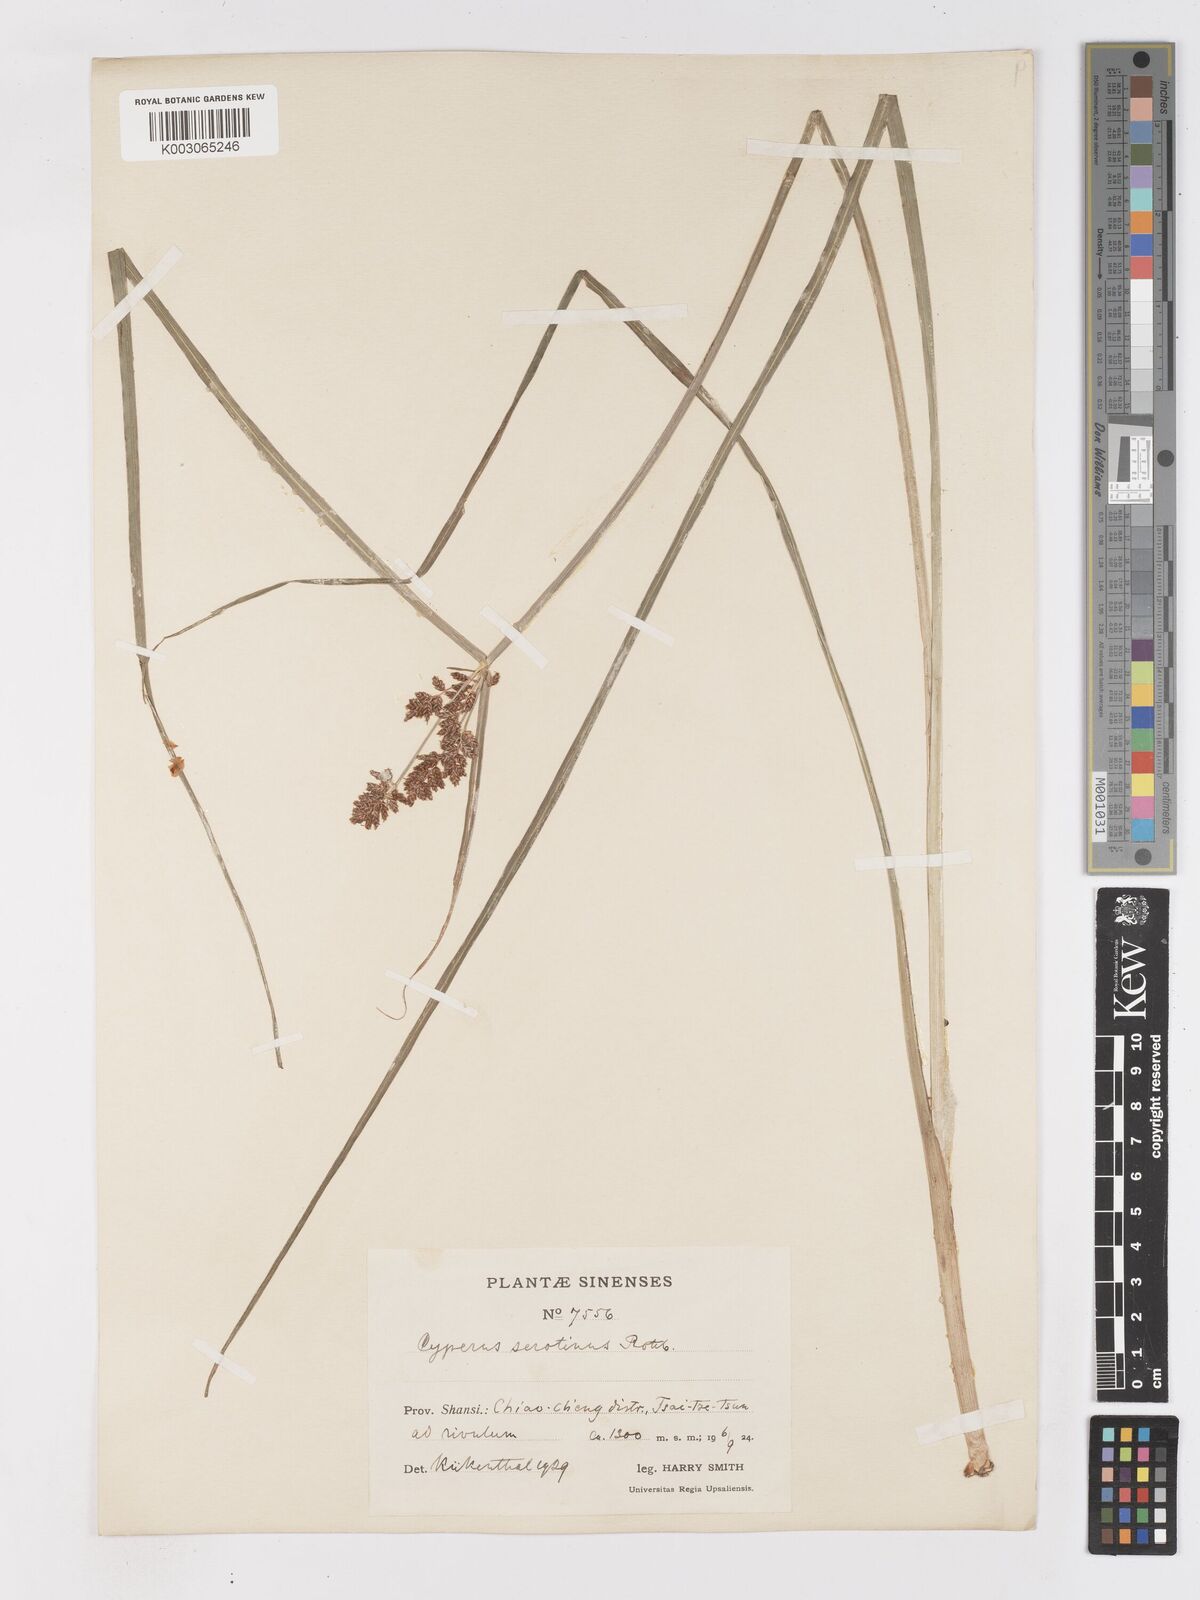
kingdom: Plantae
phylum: Tracheophyta
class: Liliopsida
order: Poales
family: Cyperaceae
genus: Cyperus
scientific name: Cyperus serotinus
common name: Tidalmarsh flatsedge
